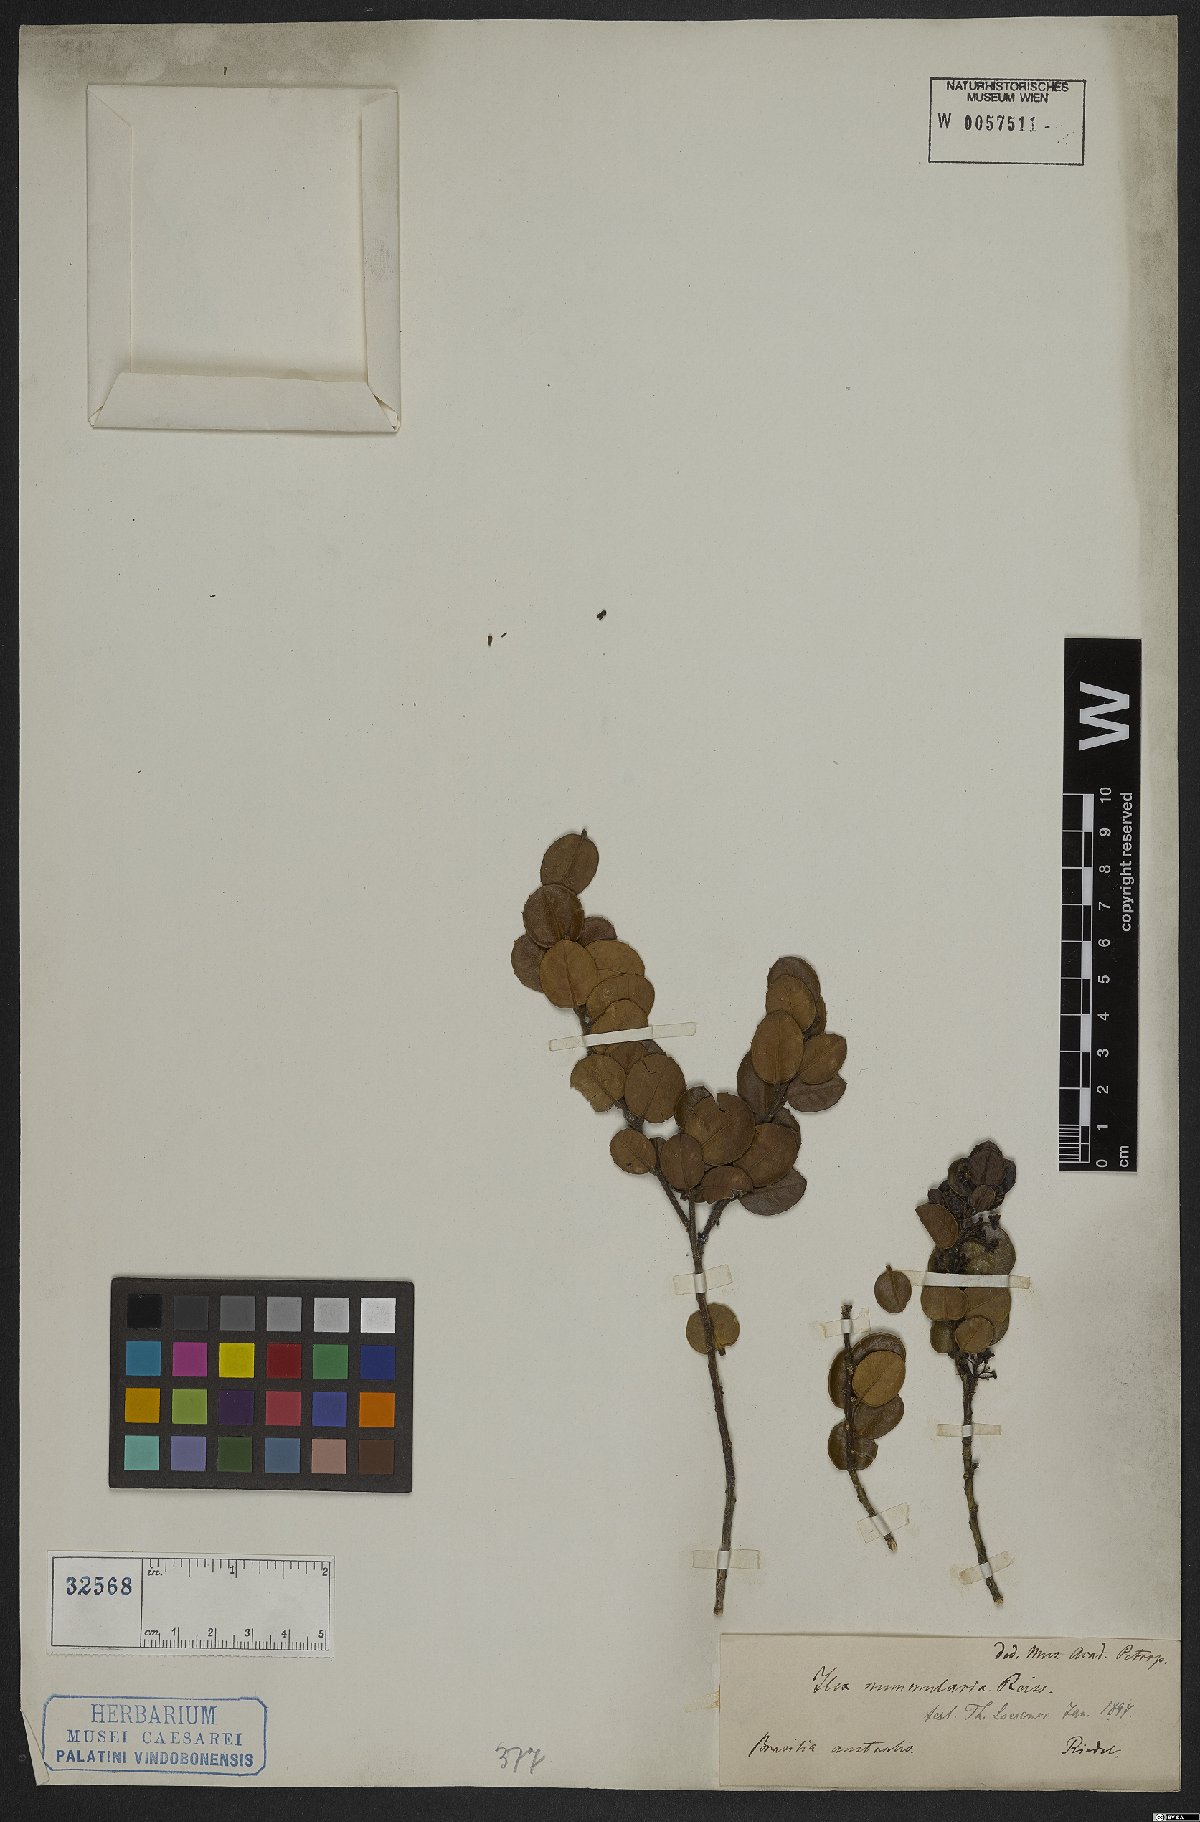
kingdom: Plantae
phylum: Tracheophyta
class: Magnoliopsida
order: Aquifoliales
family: Aquifoliaceae
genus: Ilex
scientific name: Ilex nummularia
